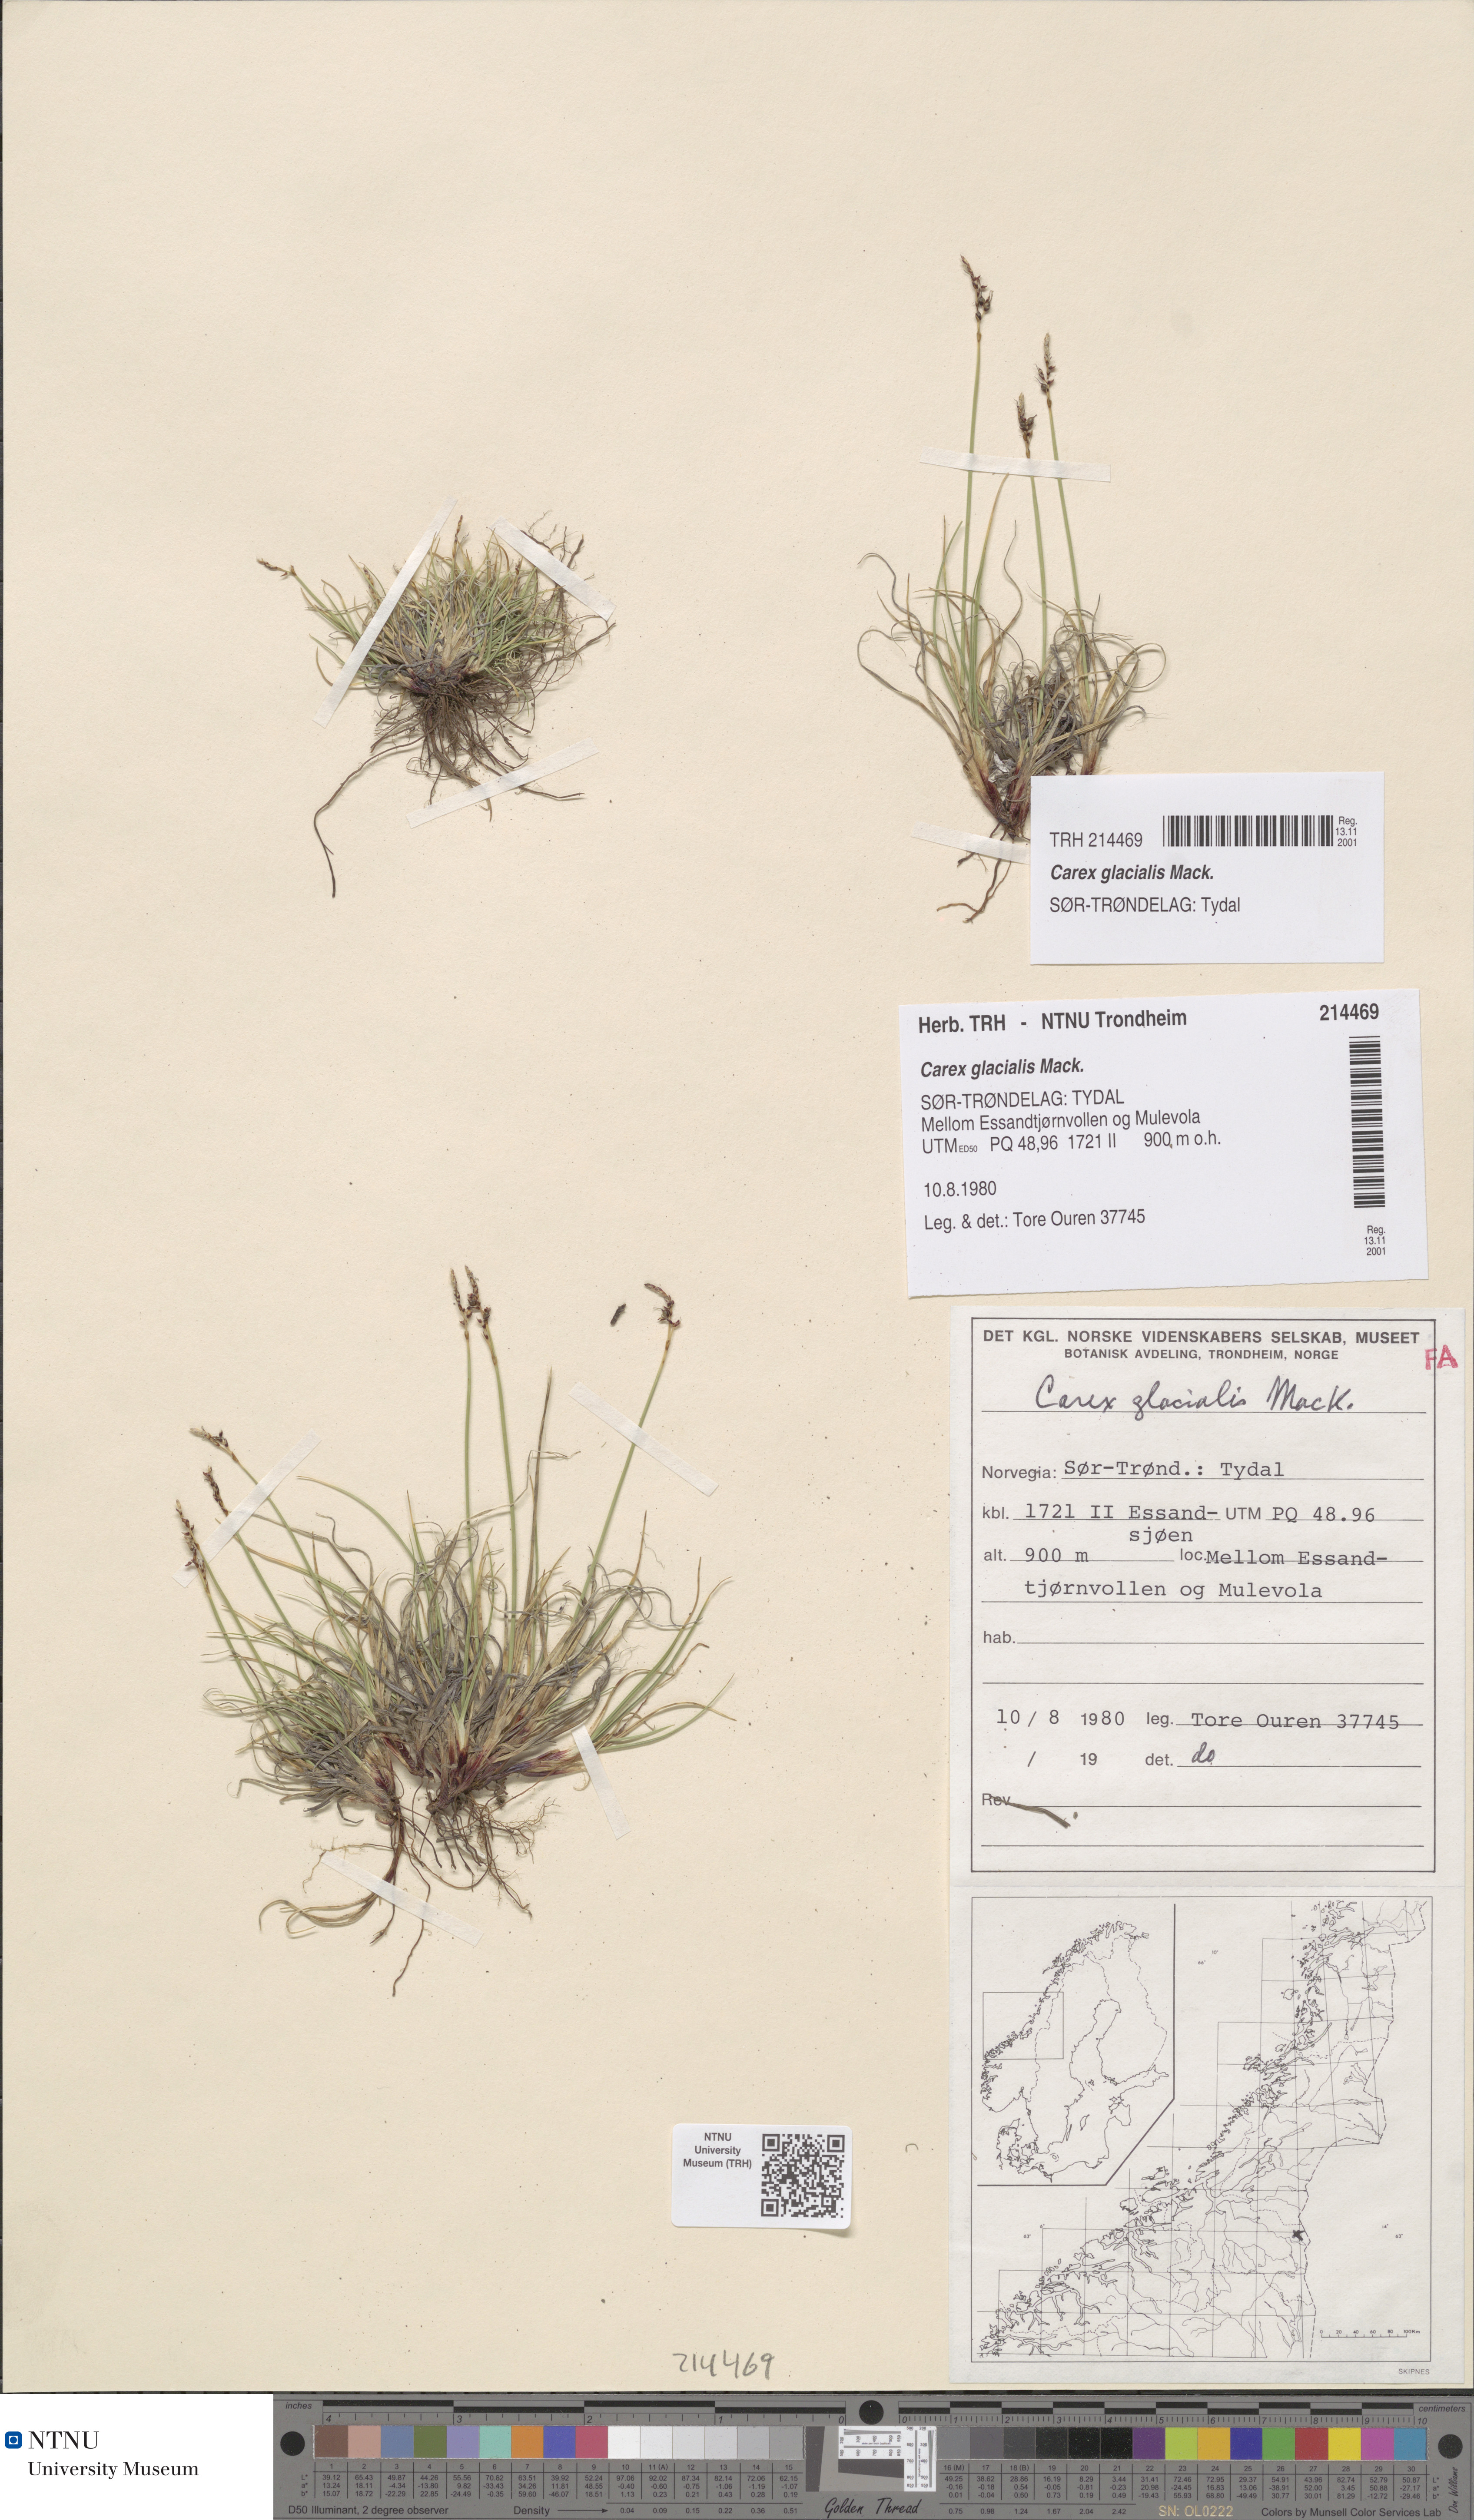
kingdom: Plantae
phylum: Tracheophyta
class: Liliopsida
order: Poales
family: Cyperaceae
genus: Carex
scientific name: Carex glacialis
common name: Newfoundland sedge
